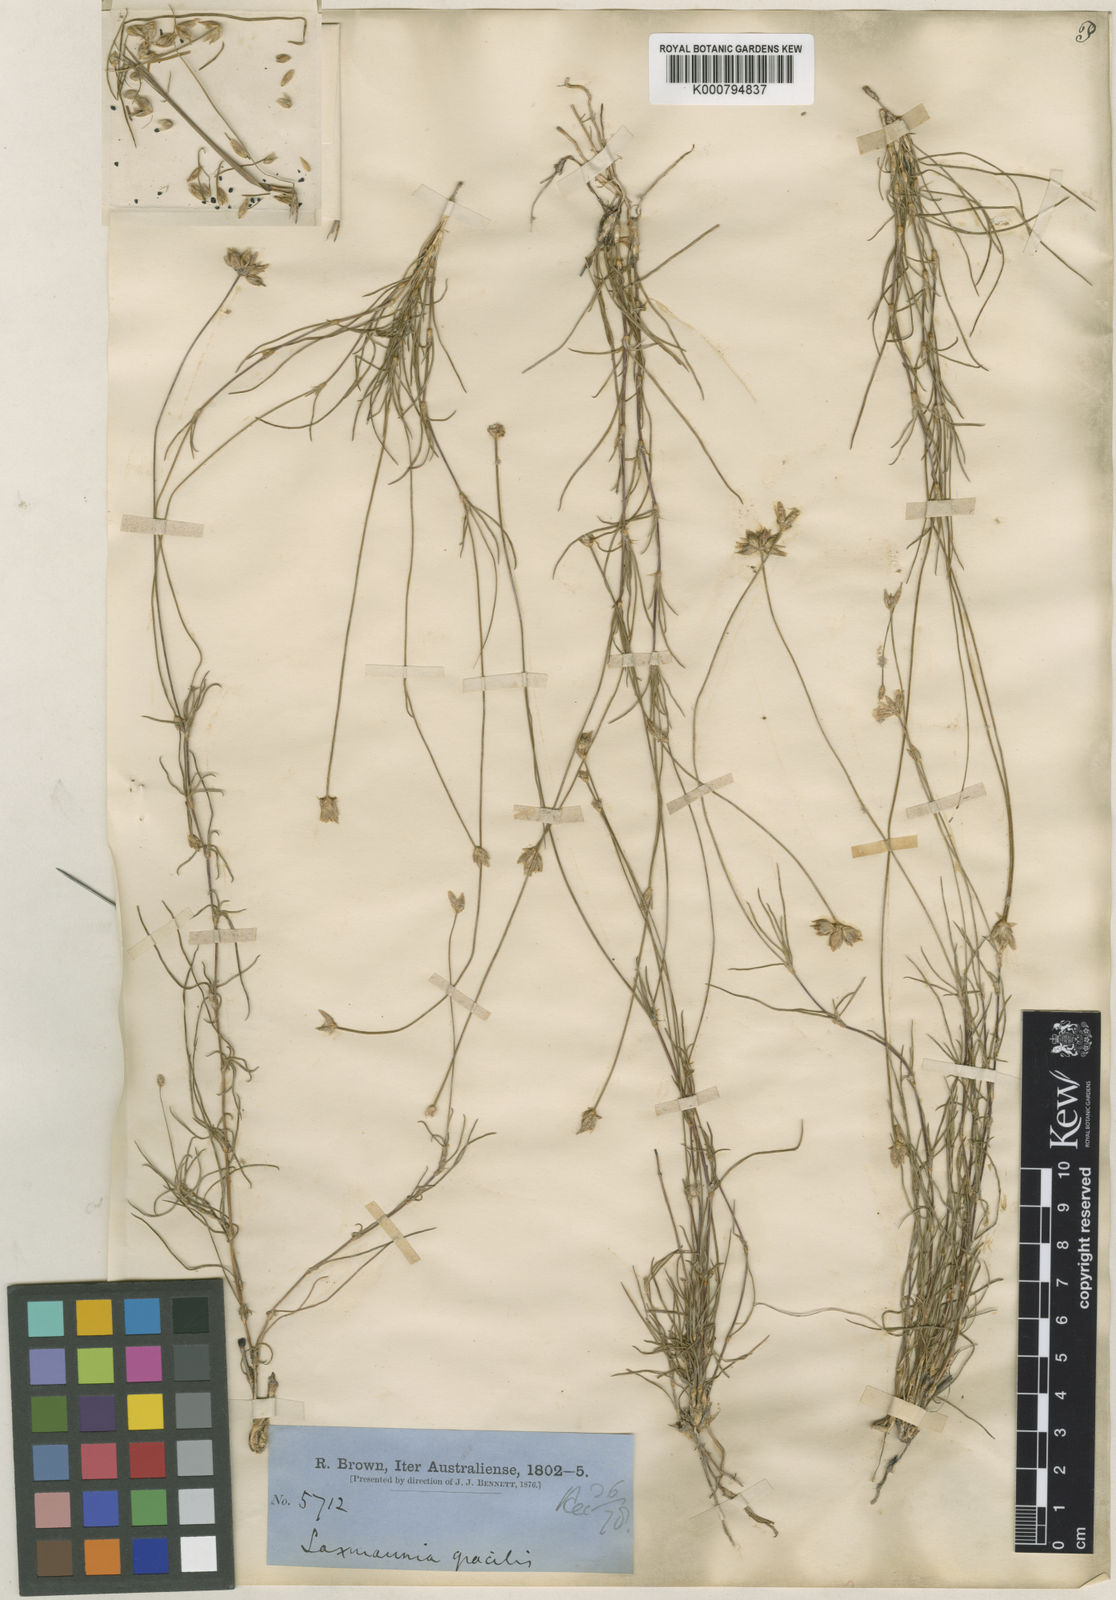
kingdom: Plantae
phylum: Tracheophyta
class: Liliopsida
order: Asparagales
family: Asparagaceae
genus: Laxmannia
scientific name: Laxmannia gracilis
